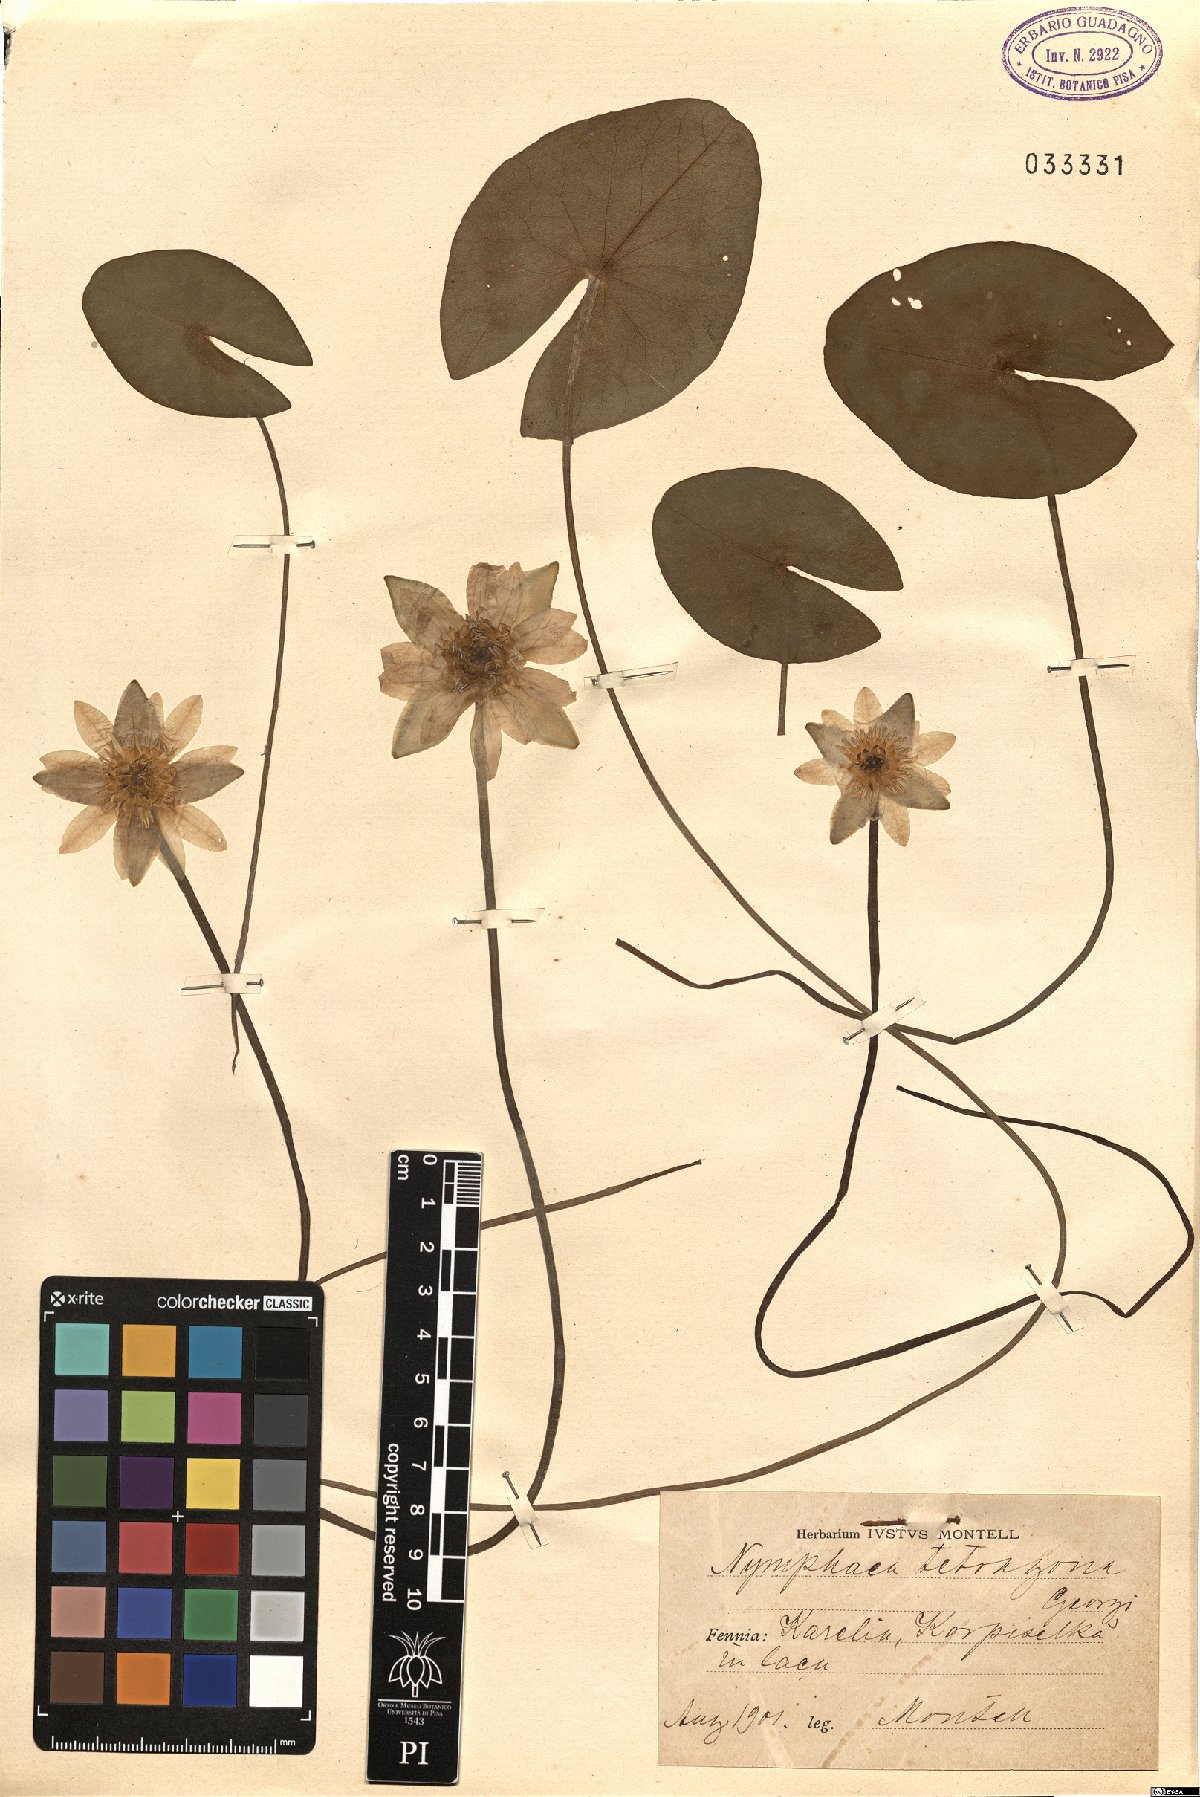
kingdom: Plantae
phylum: Tracheophyta
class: Magnoliopsida
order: Nymphaeales
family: Nymphaeaceae
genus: Nymphaea
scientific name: Nymphaea tetragona
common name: Pygmy water-lily
